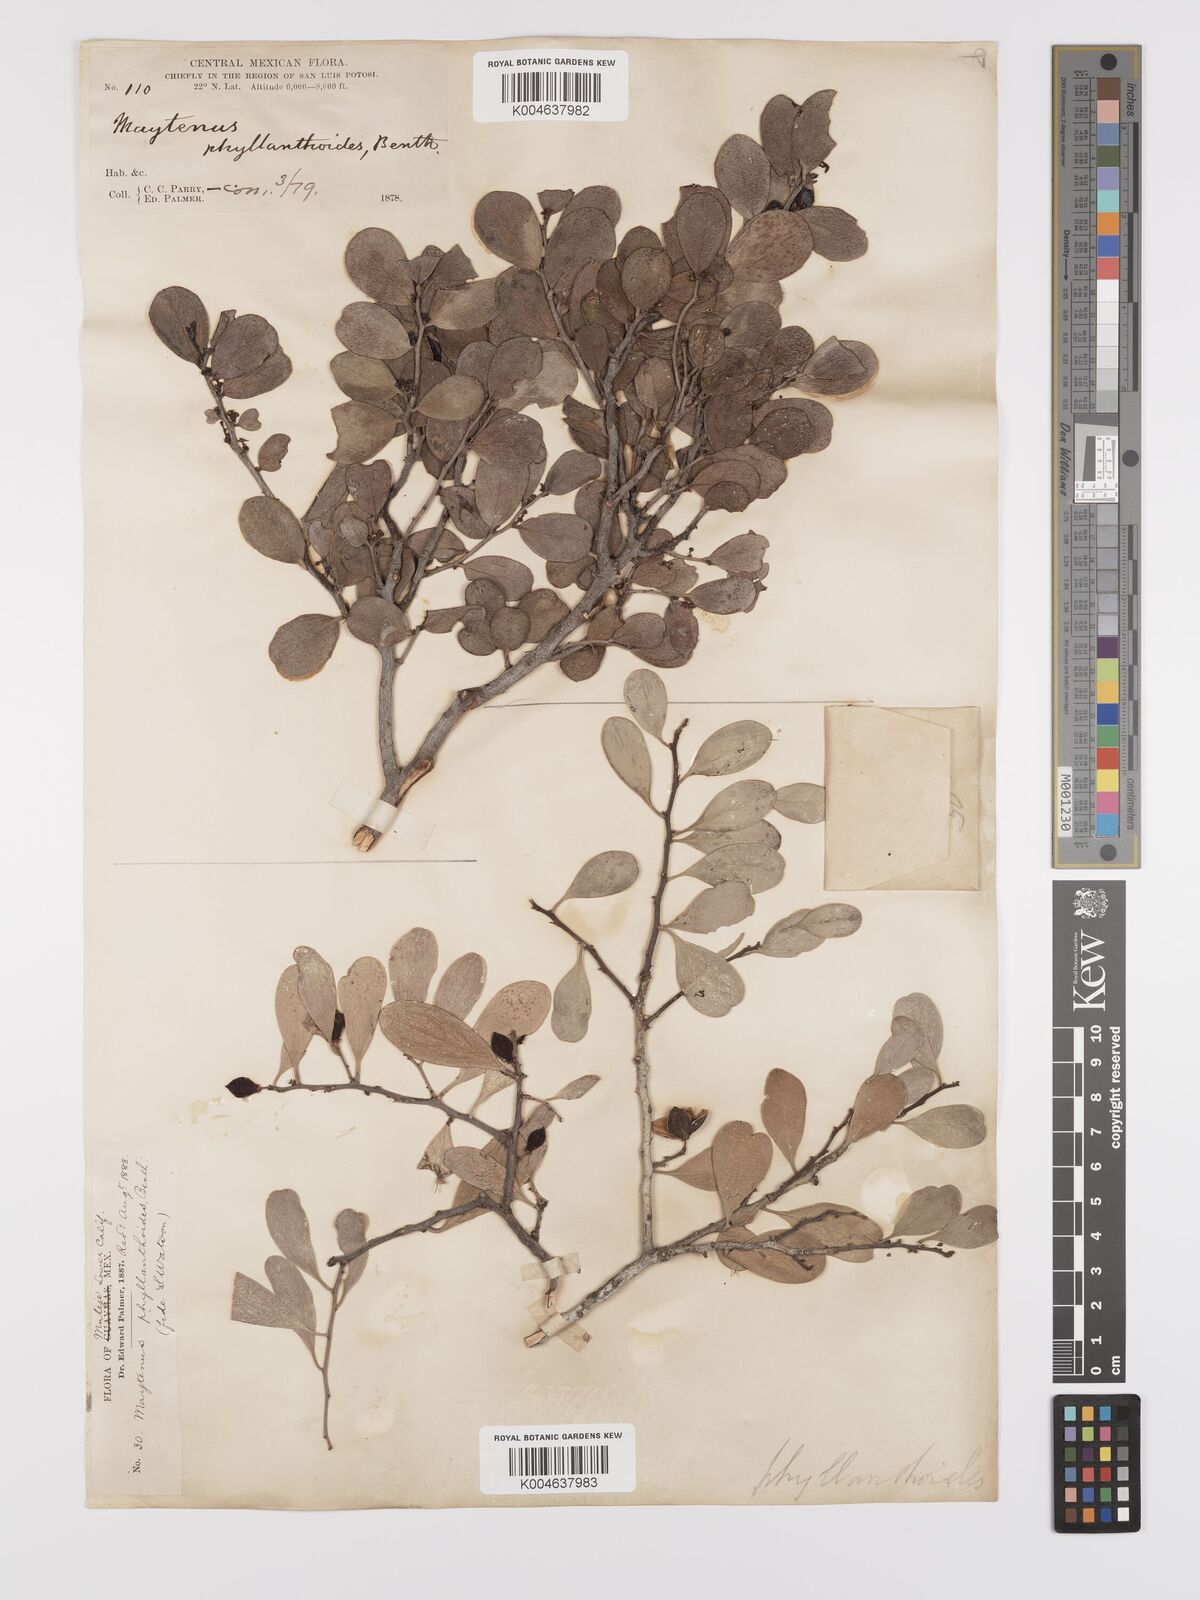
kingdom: Plantae
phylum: Tracheophyta
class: Magnoliopsida
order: Celastrales
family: Celastraceae
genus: Tricerma
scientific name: Tricerma phyllanthoides
